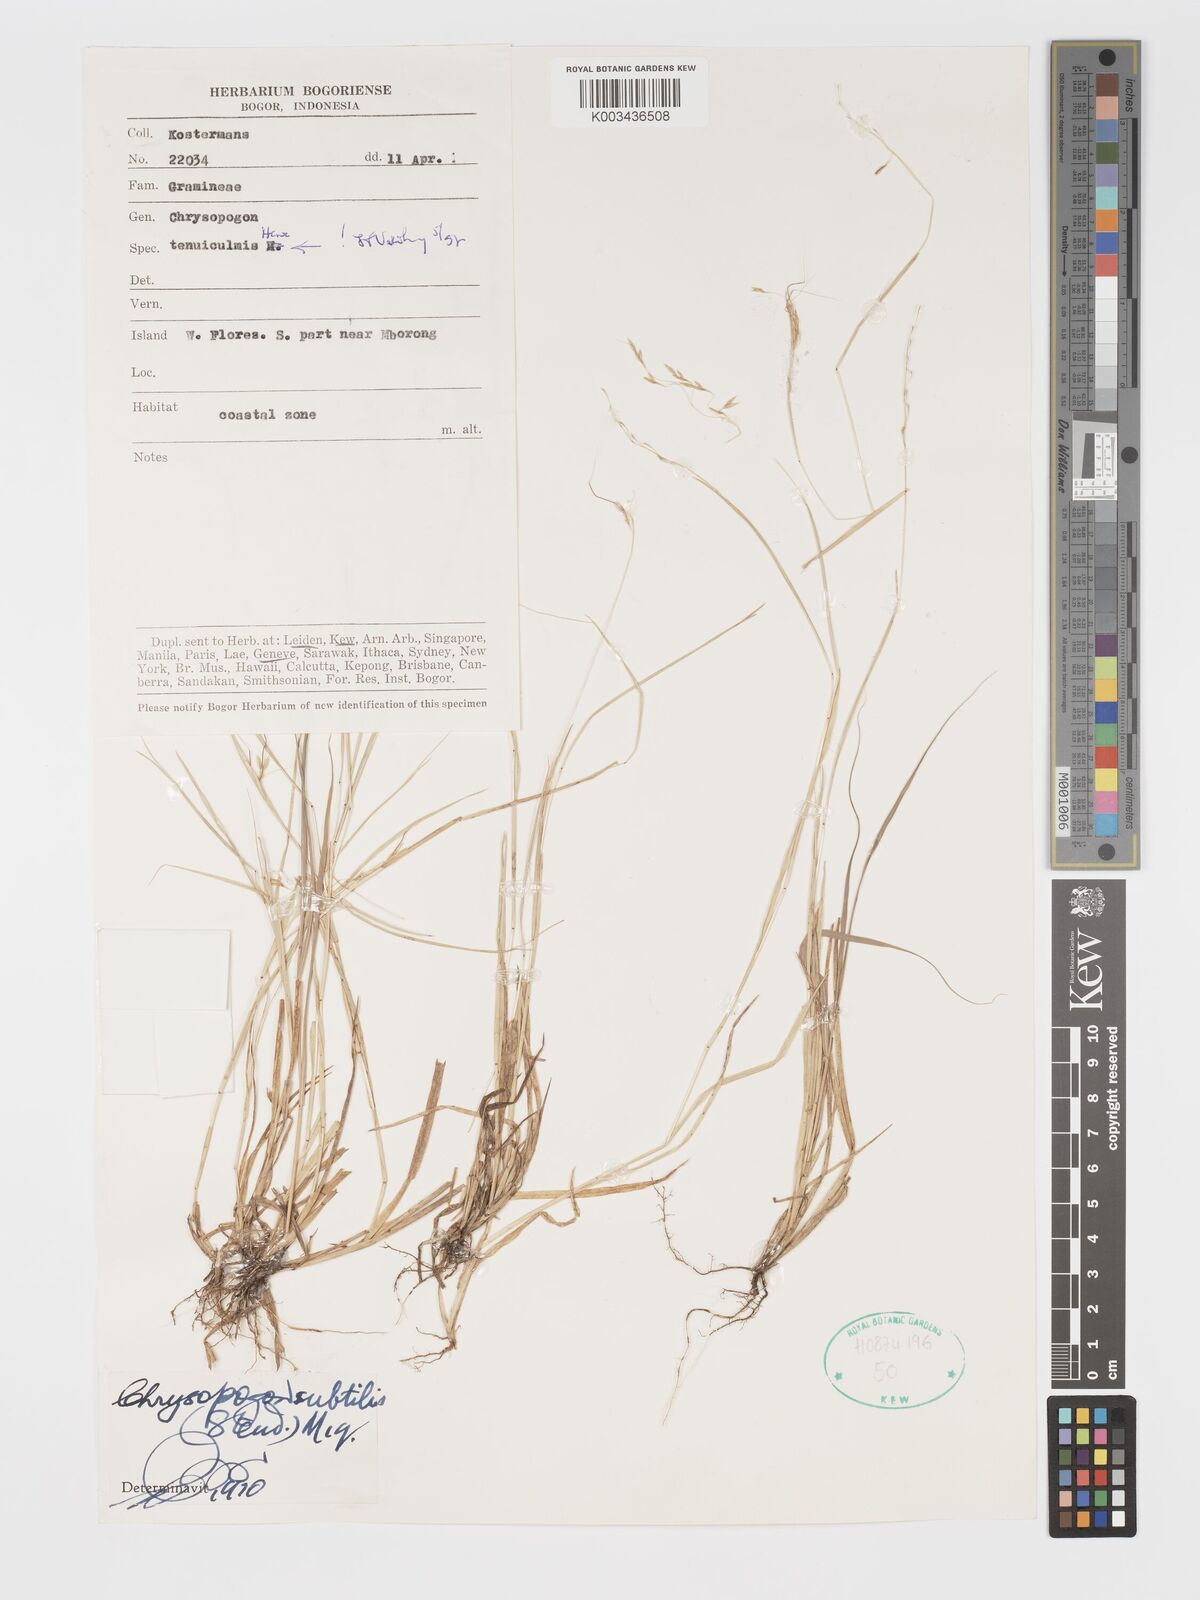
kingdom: Plantae
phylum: Tracheophyta
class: Liliopsida
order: Poales
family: Poaceae
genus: Chrysopogon
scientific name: Chrysopogon subtilis
